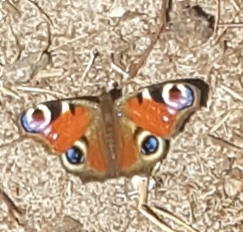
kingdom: Animalia
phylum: Arthropoda
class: Insecta
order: Lepidoptera
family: Nymphalidae
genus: Aglais
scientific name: Aglais io
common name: Dagpåfugleøje
